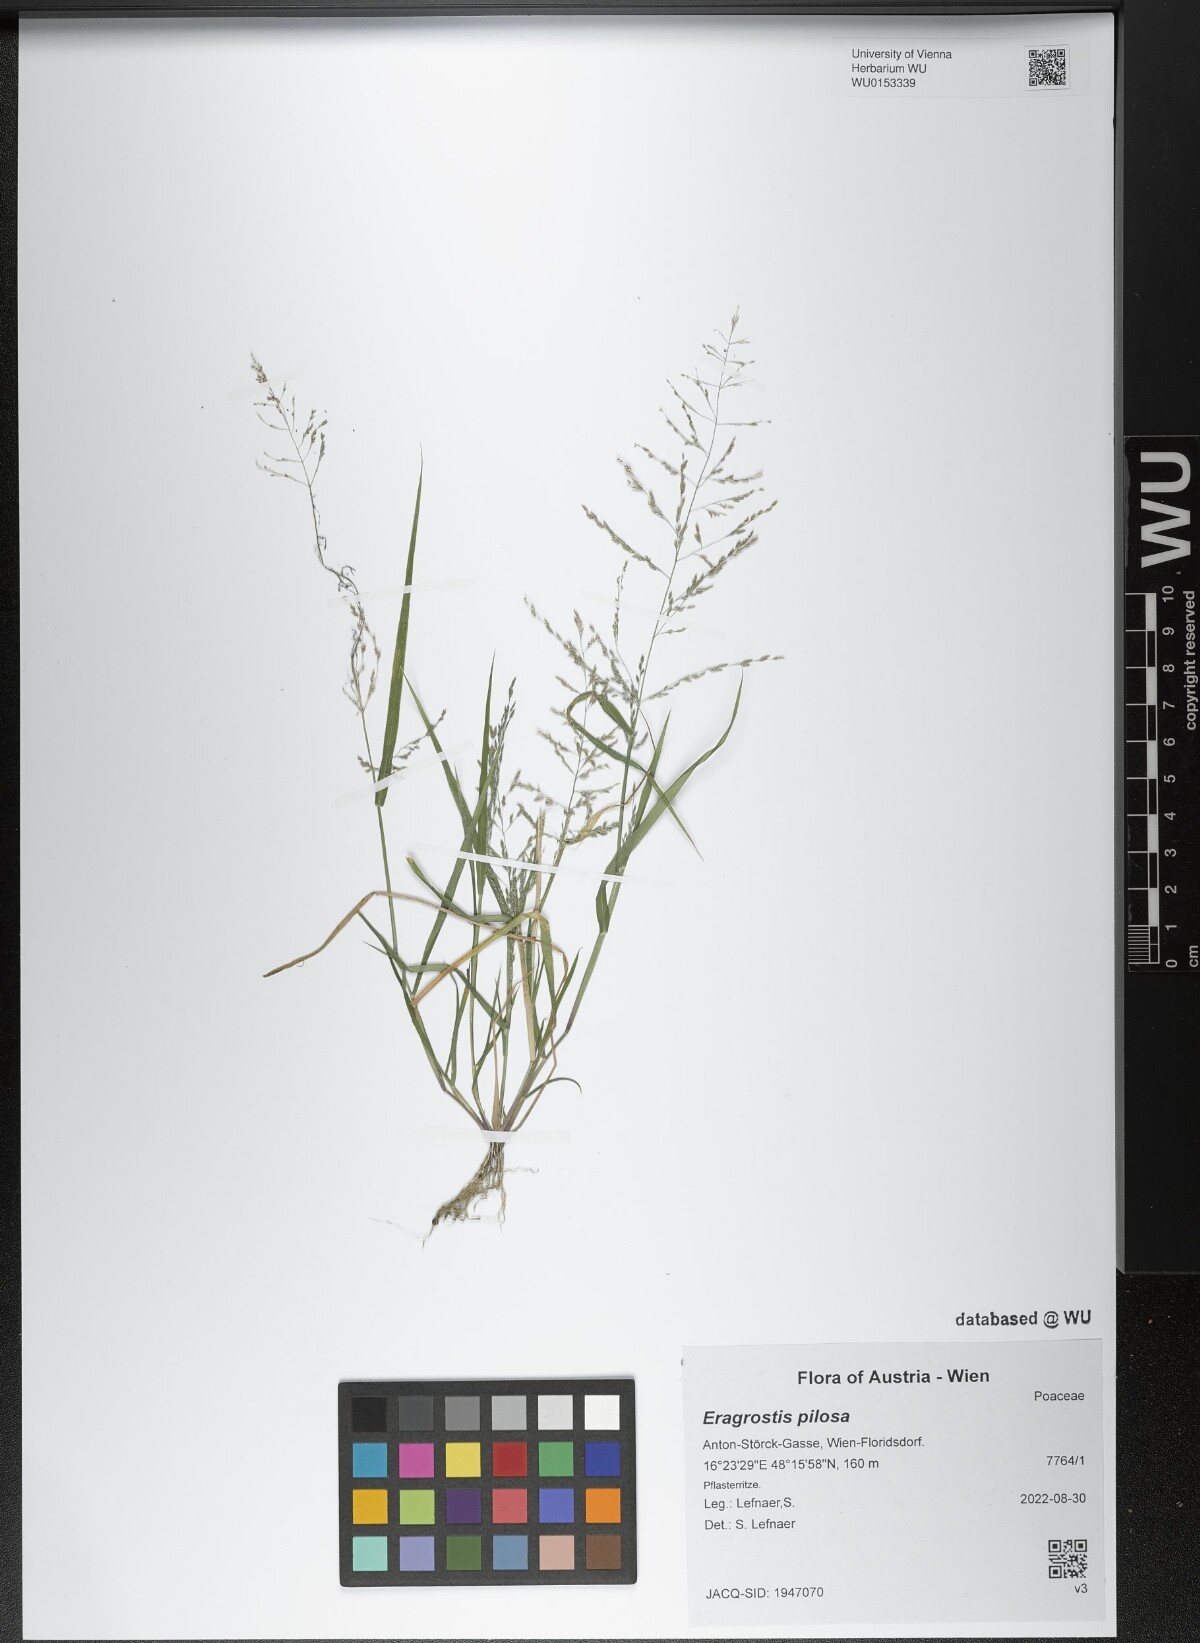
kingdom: Plantae
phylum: Tracheophyta
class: Liliopsida
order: Poales
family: Poaceae
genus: Eragrostis
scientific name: Eragrostis pilosa
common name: Indian lovegrass
